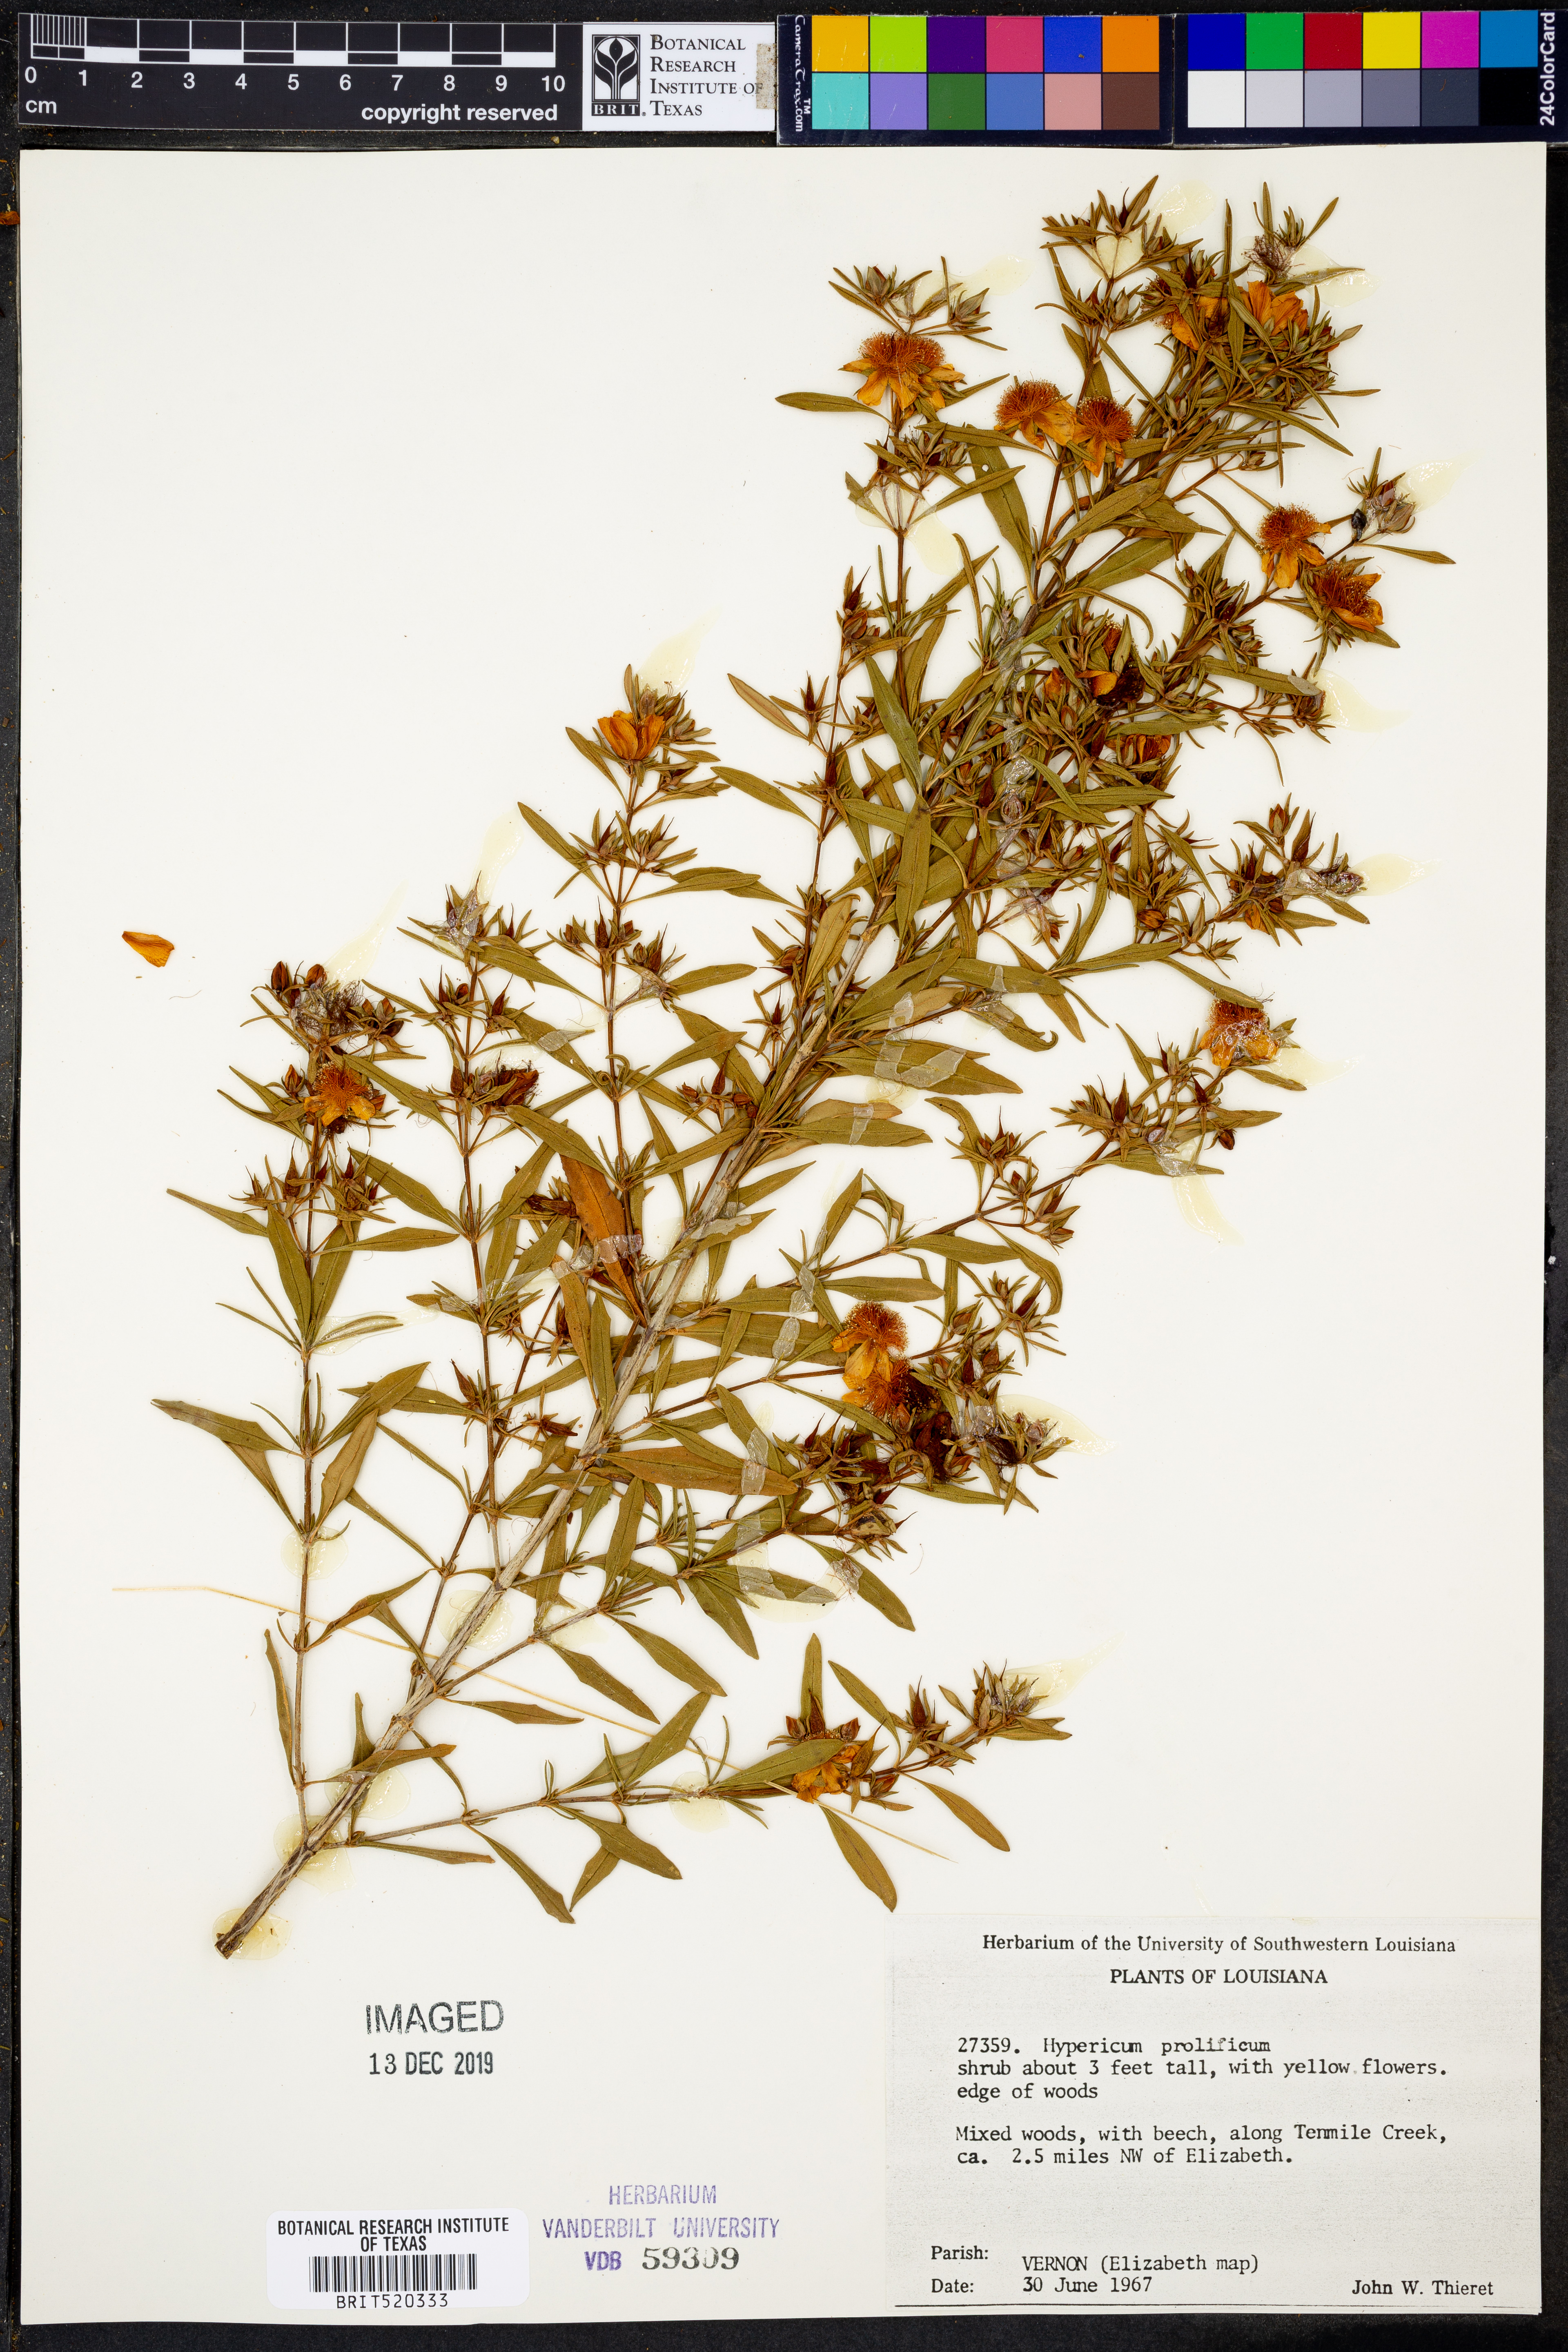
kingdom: Plantae
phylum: Tracheophyta
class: Magnoliopsida
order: Malpighiales
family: Hypericaceae
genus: Hypericum
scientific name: Hypericum prolificum
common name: Shrubby st. john's-wort
